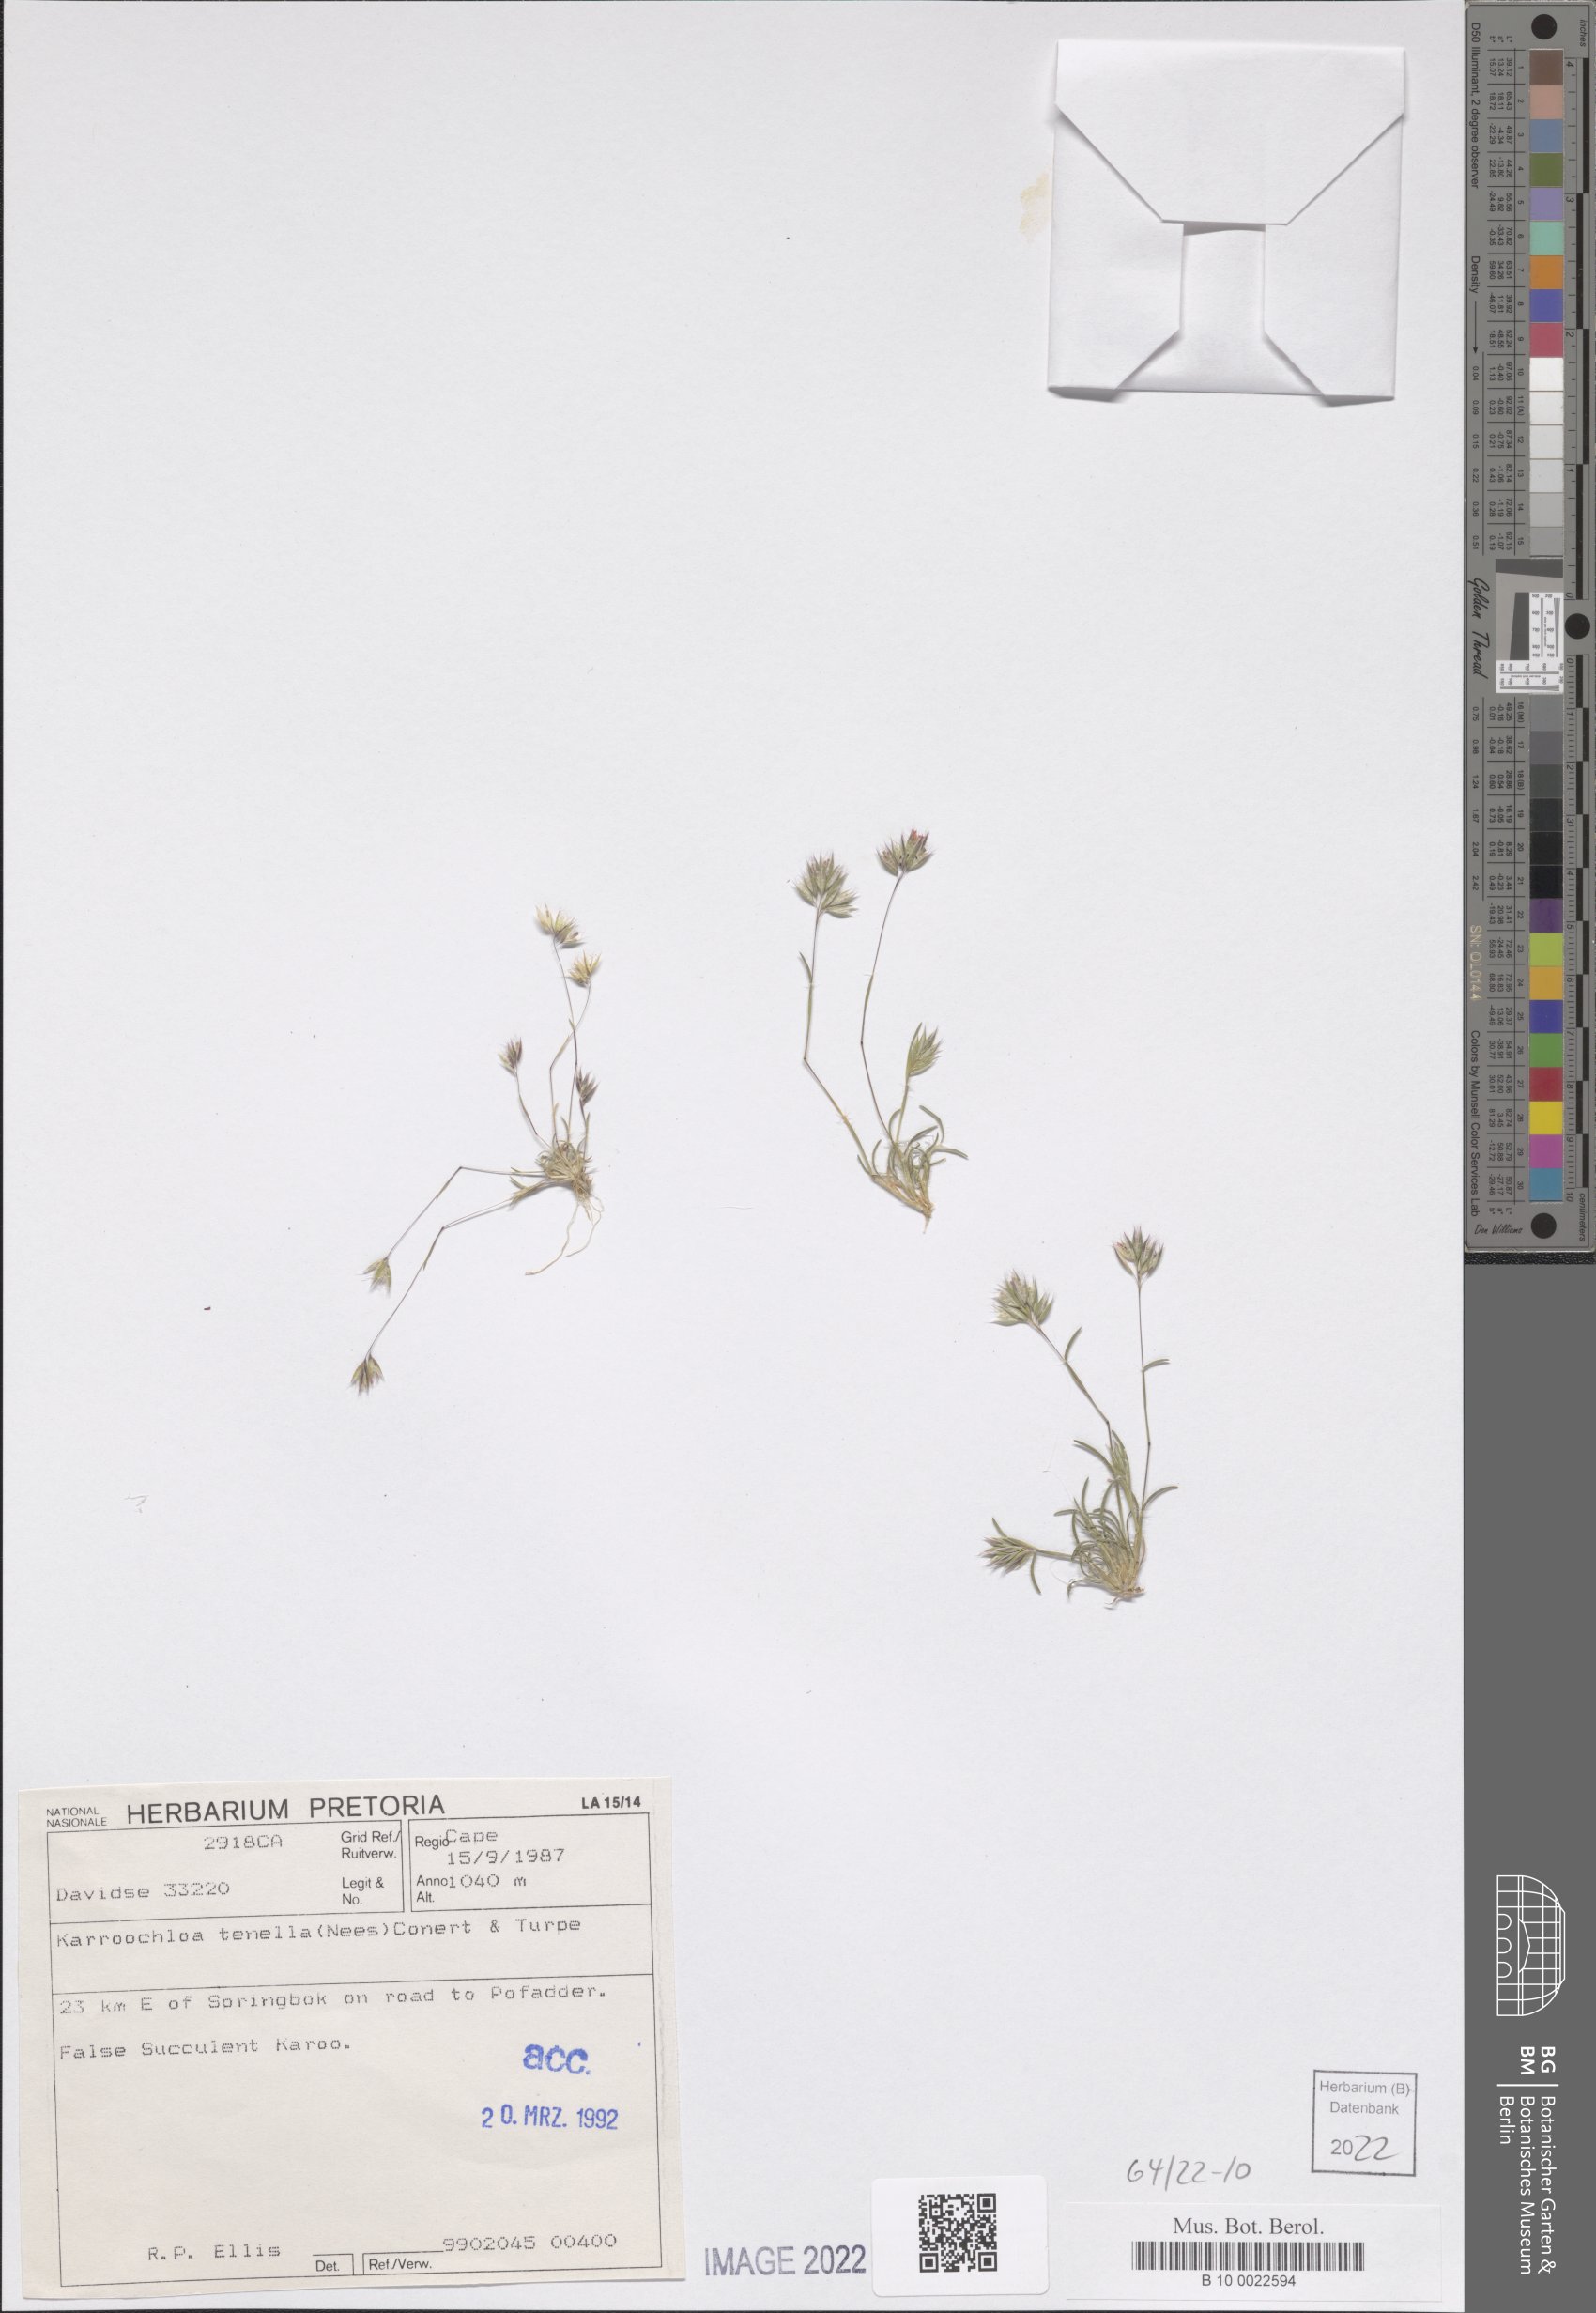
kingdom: Plantae
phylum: Tracheophyta
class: Liliopsida
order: Poales
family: Poaceae
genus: Tribolium
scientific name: Tribolium tenellum
